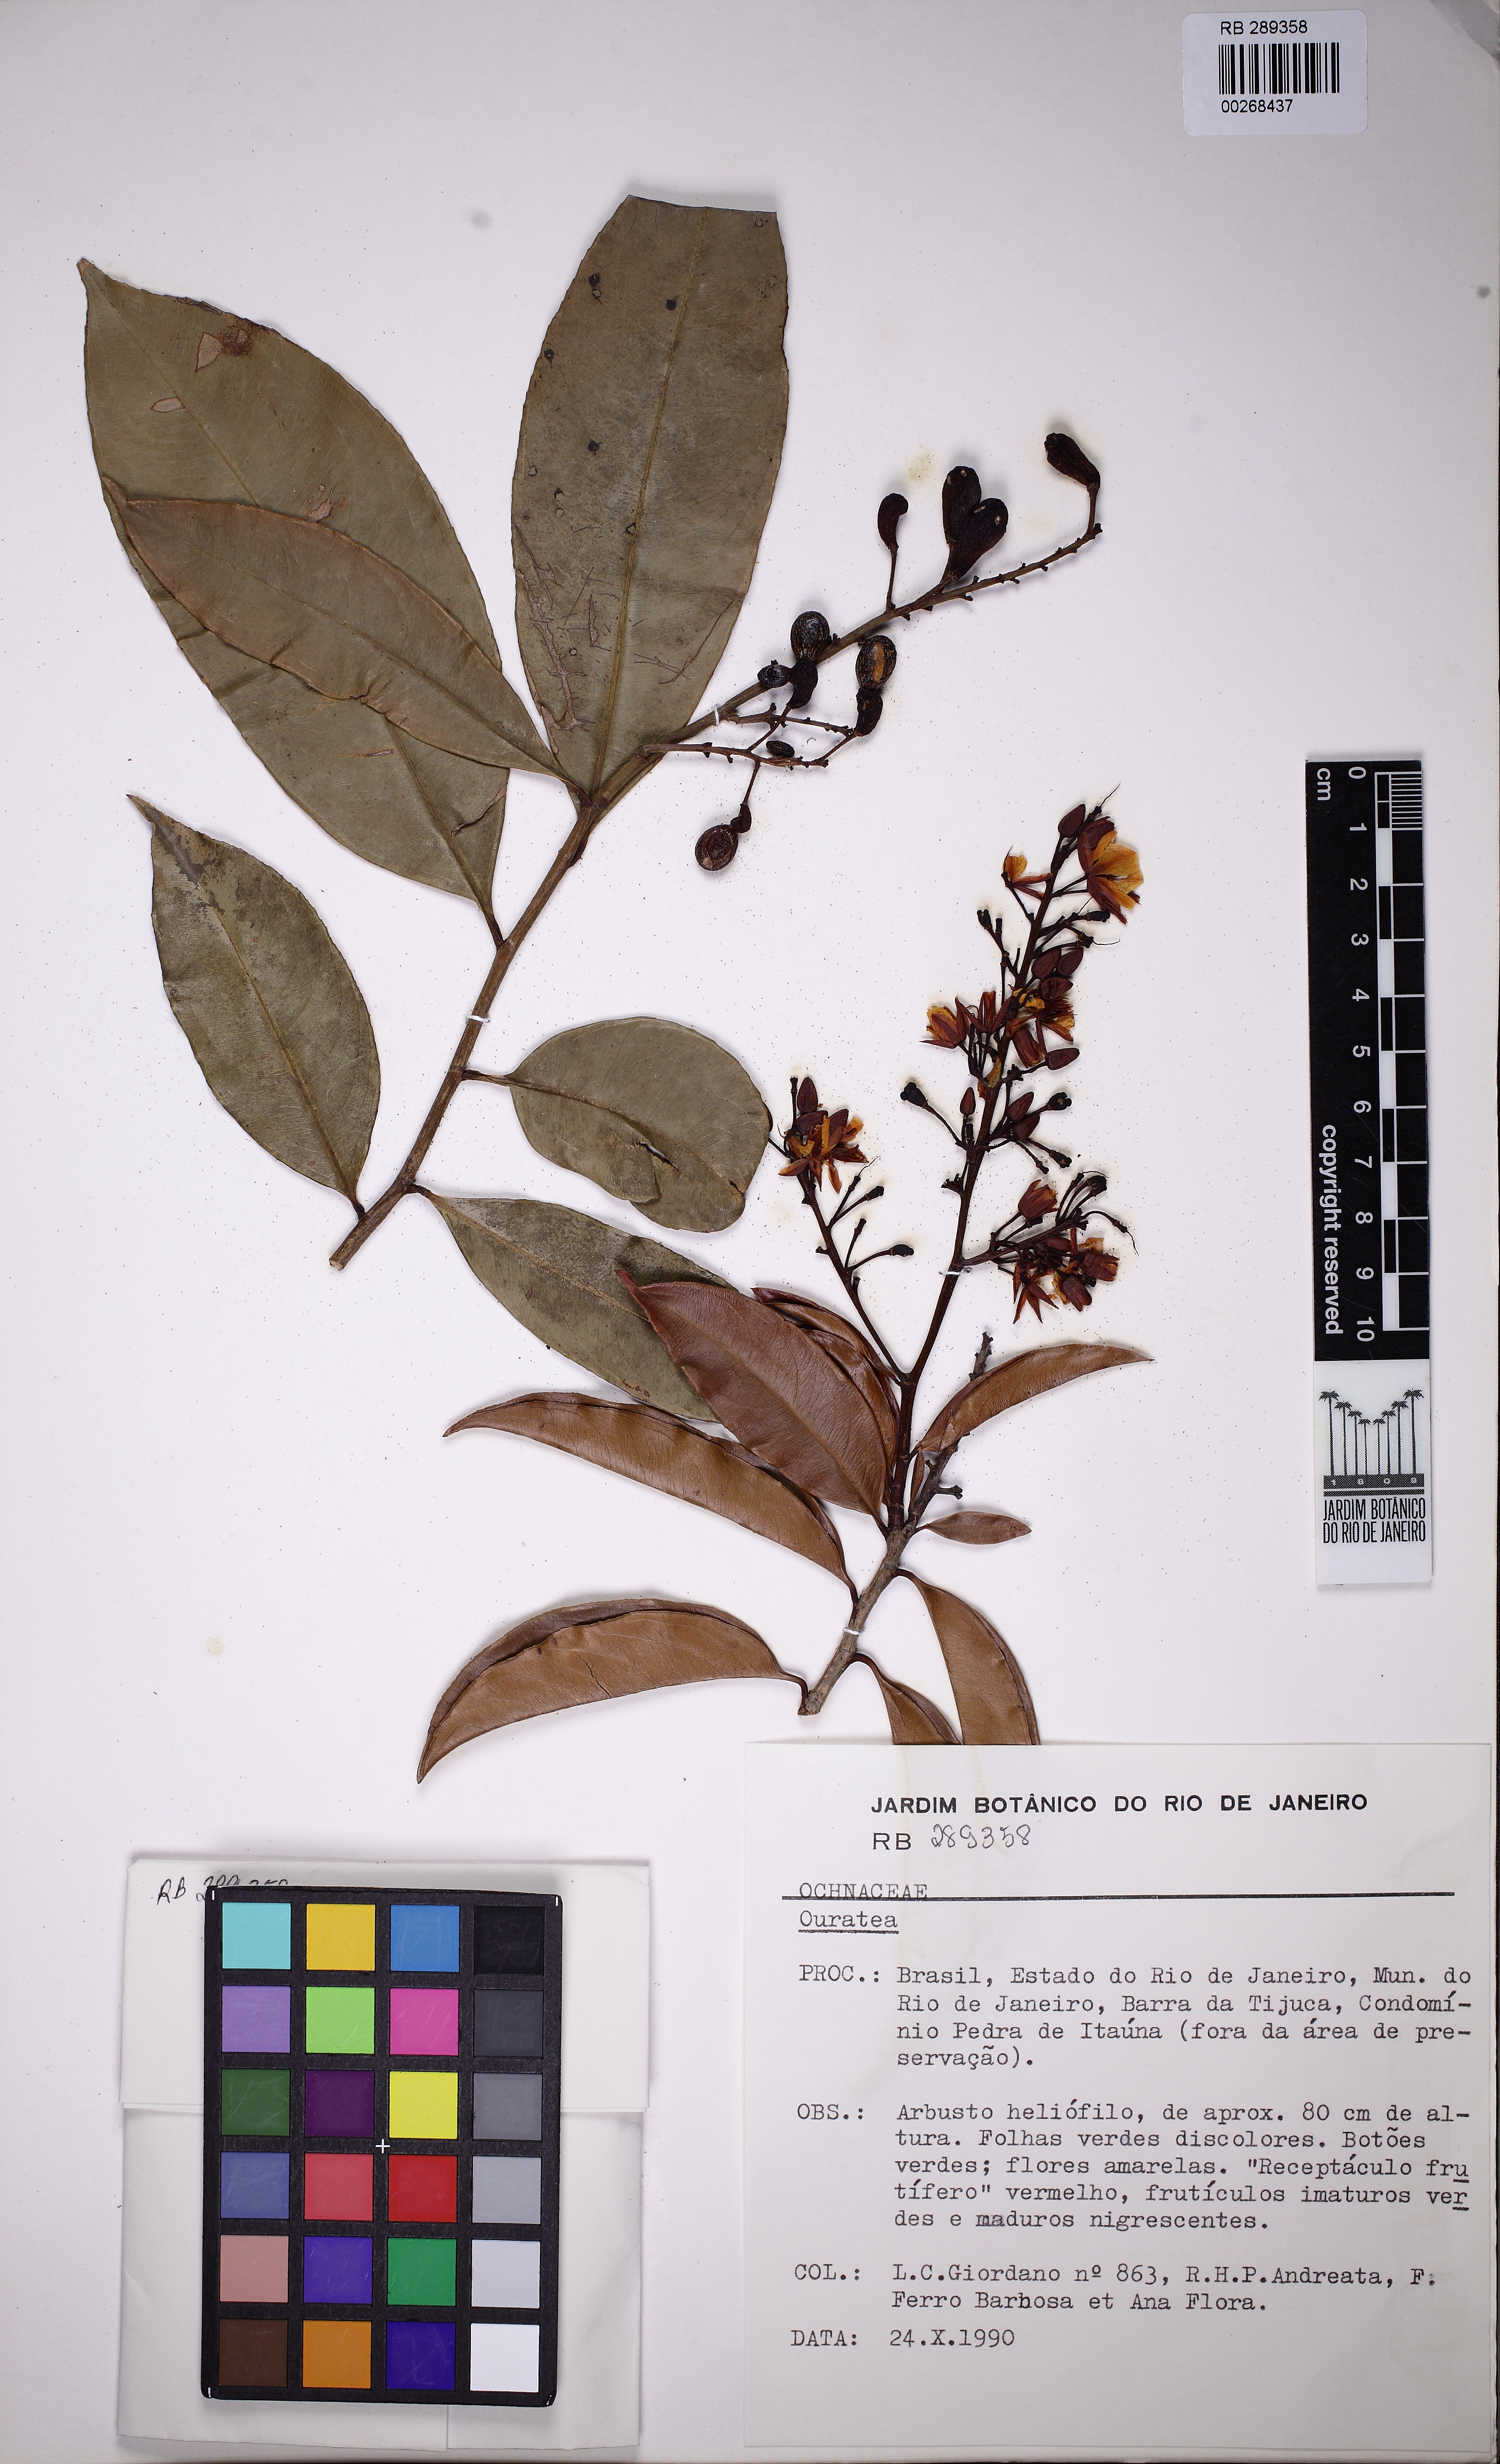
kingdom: Plantae
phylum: Tracheophyta
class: Magnoliopsida
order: Malpighiales
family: Ochnaceae
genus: Ouratea
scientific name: Ouratea
